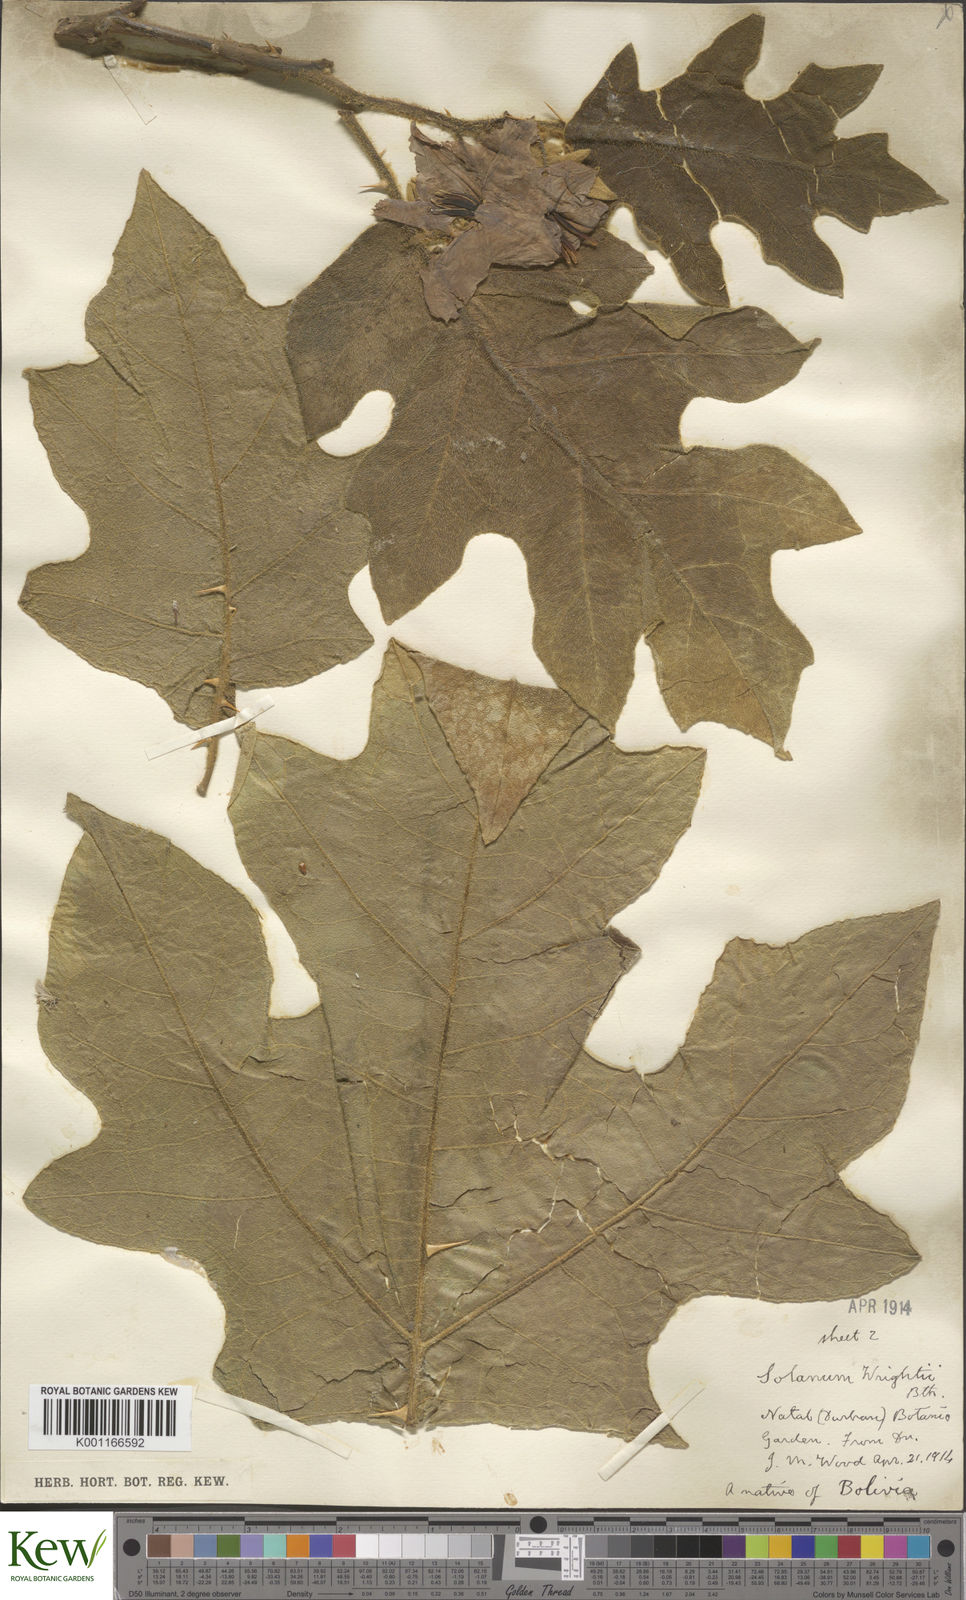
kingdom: Plantae
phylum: Tracheophyta
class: Magnoliopsida
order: Solanales
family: Solanaceae
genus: Solanum
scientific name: Solanum wrightii
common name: Brazilian potato-tree
